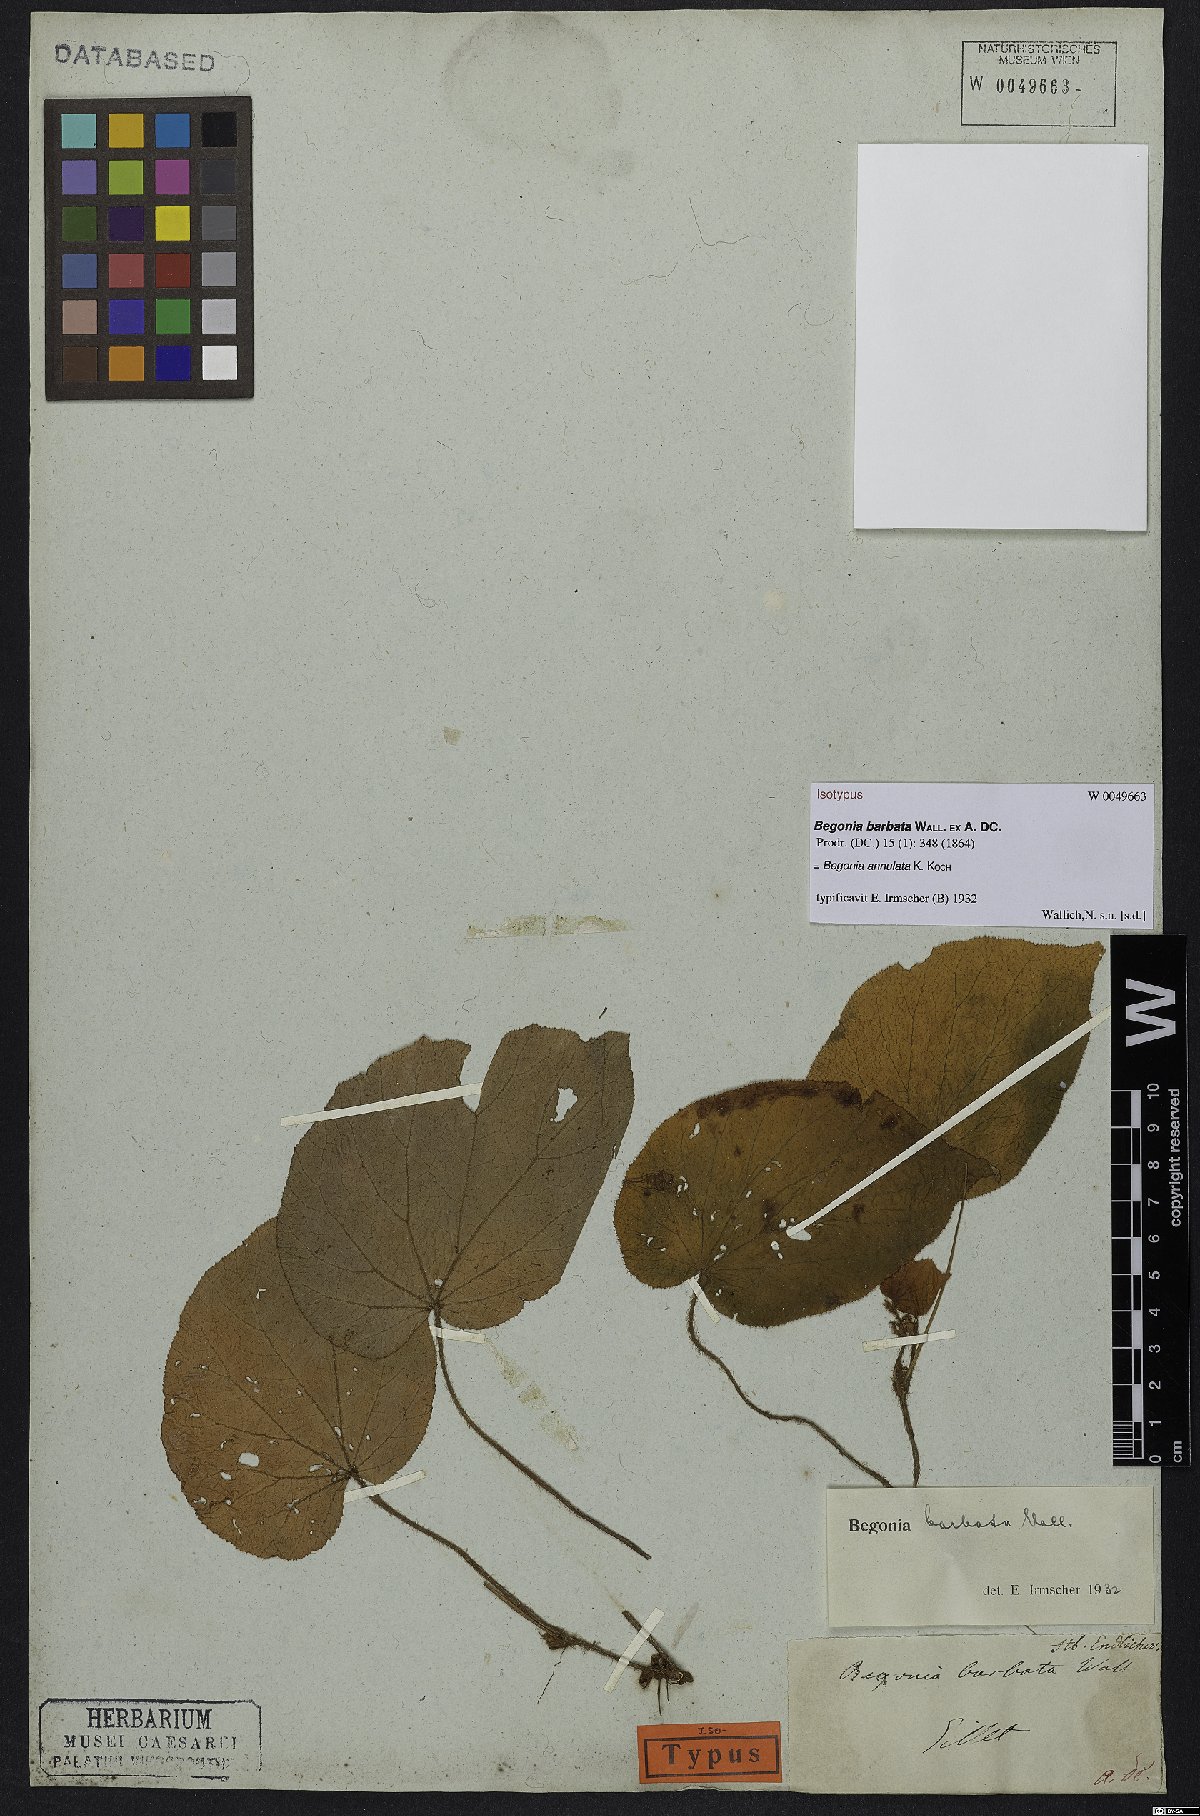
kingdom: Plantae
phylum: Tracheophyta
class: Magnoliopsida
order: Cucurbitales
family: Begoniaceae
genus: Begonia
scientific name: Begonia annulata
